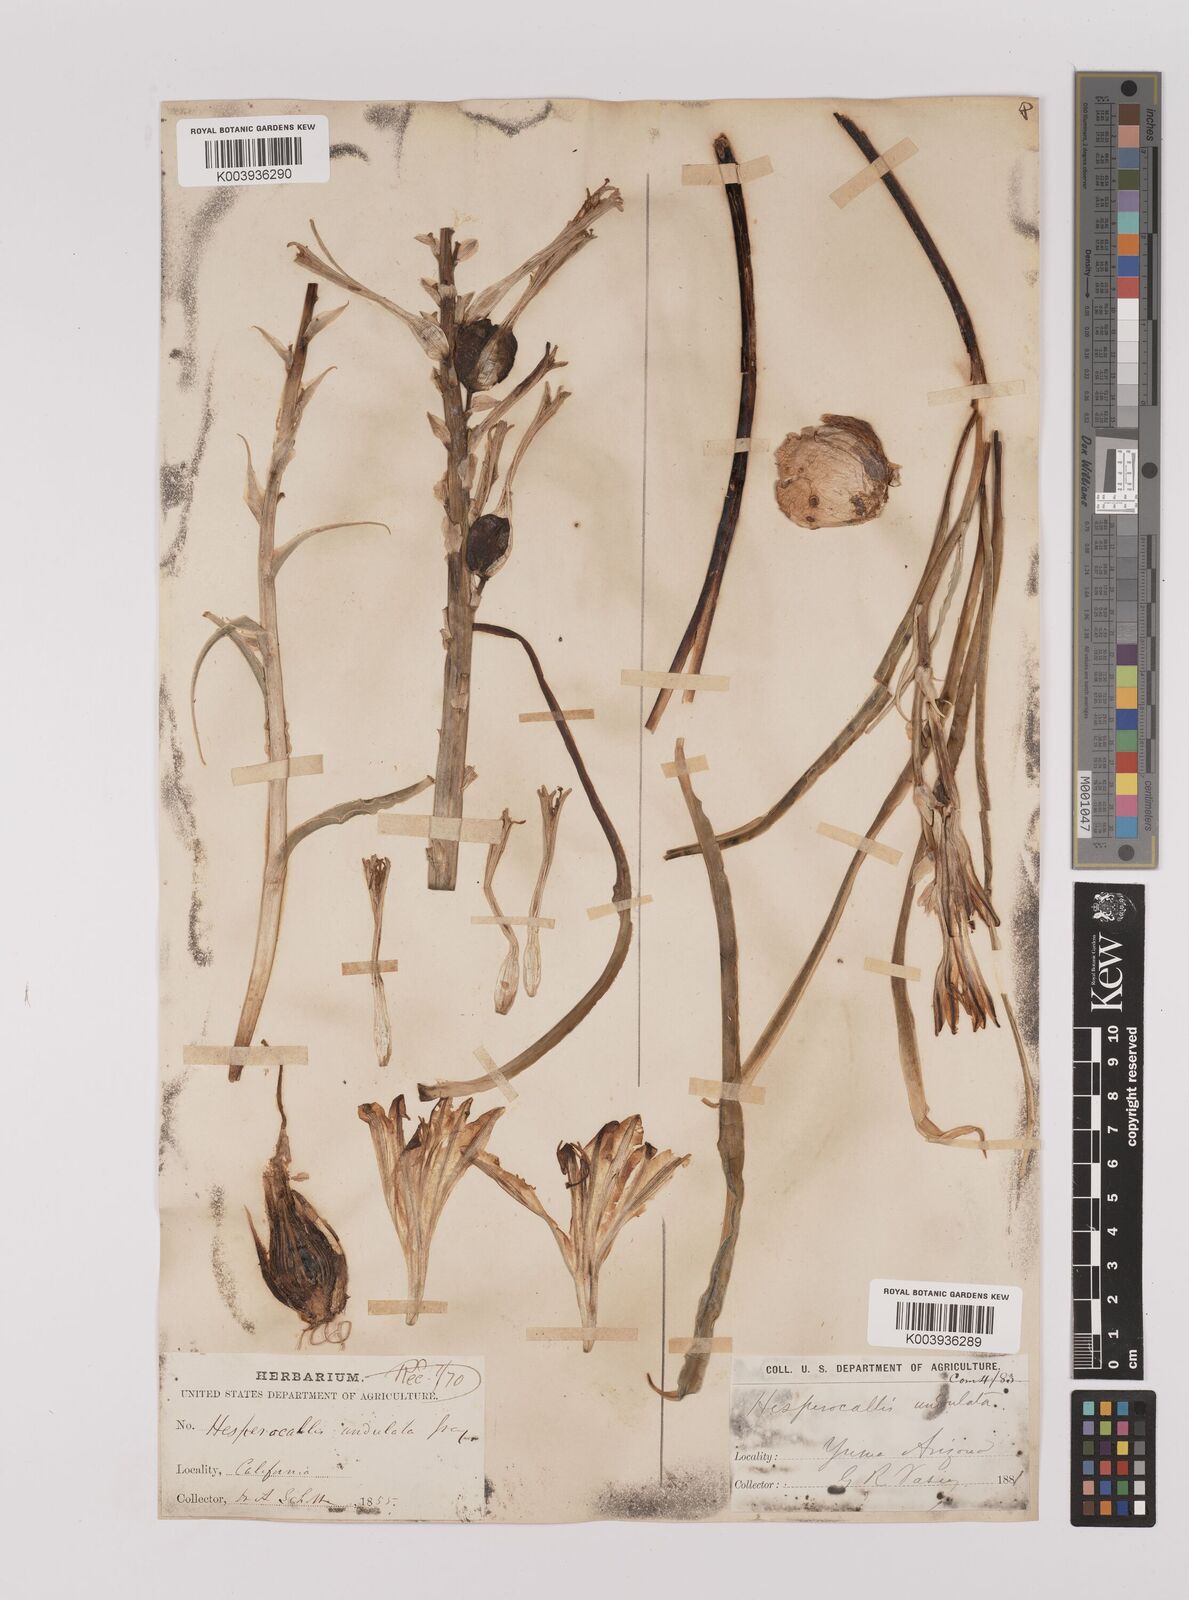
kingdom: Plantae
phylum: Tracheophyta
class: Liliopsida
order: Asparagales
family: Asparagaceae
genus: Hesperocallis
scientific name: Hesperocallis
